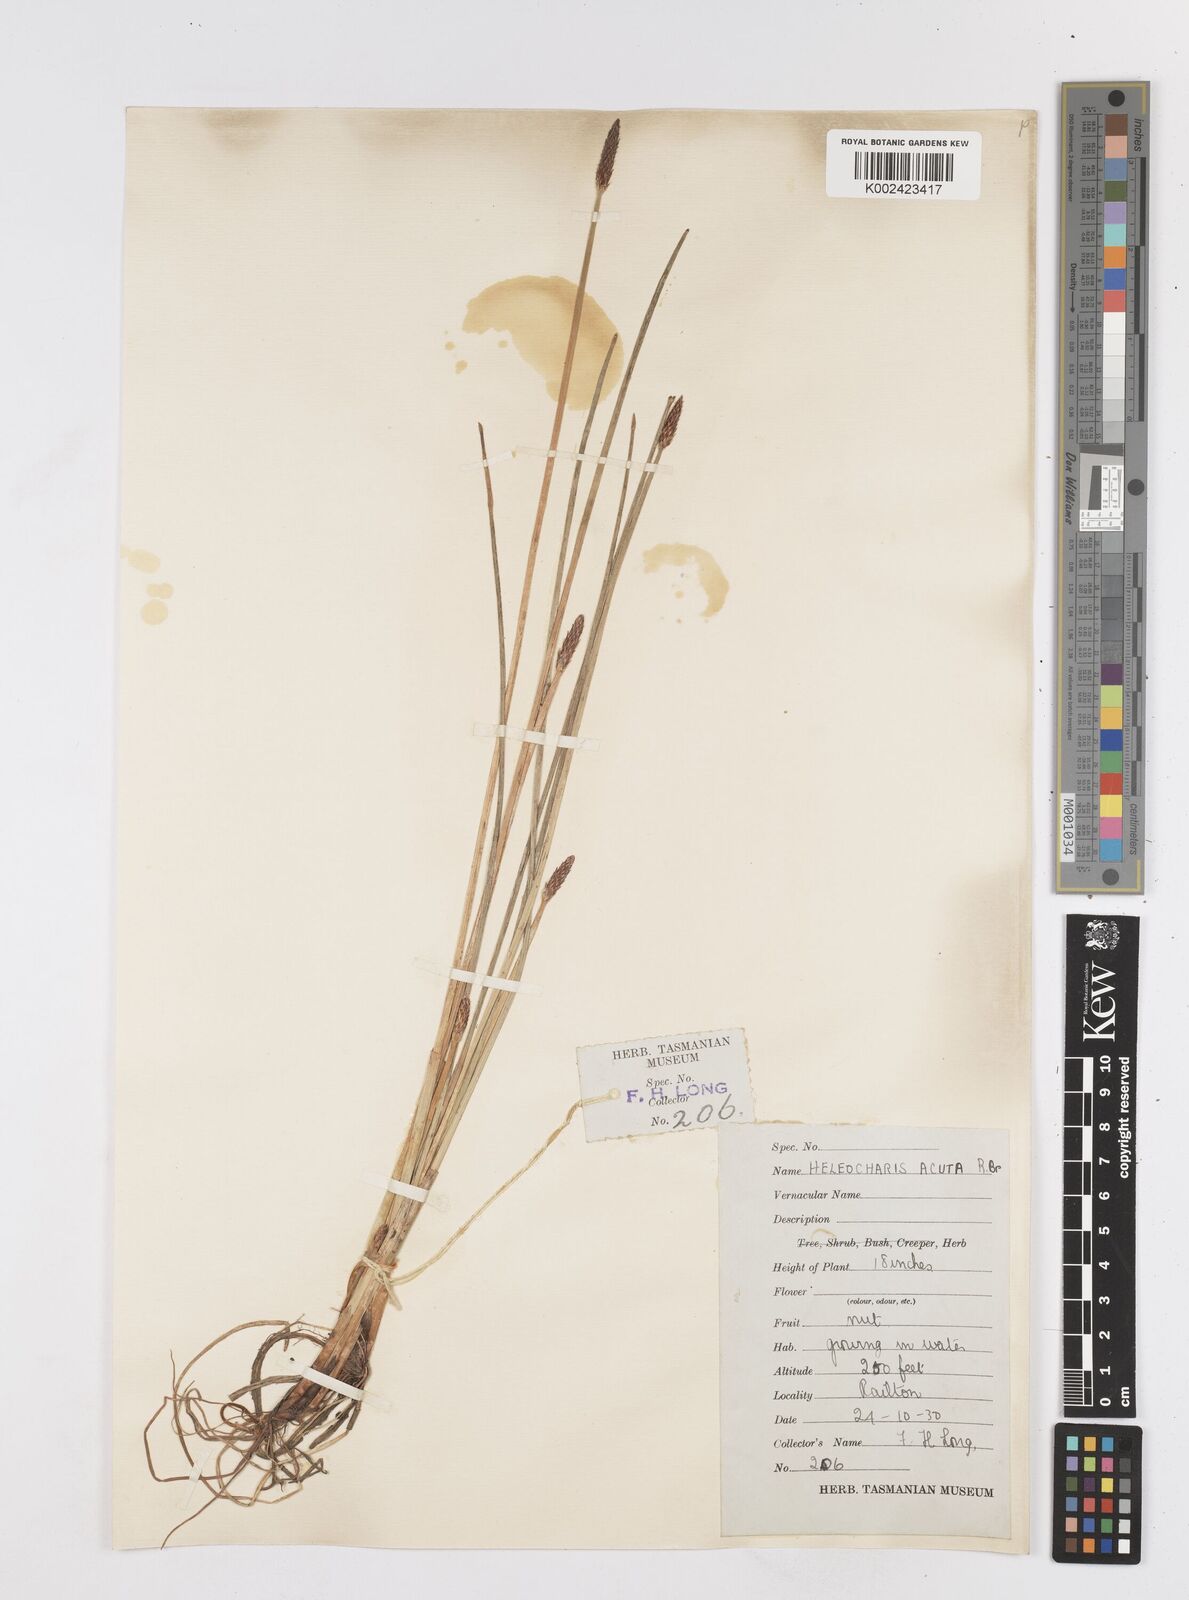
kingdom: Plantae
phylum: Tracheophyta
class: Liliopsida
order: Poales
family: Cyperaceae
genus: Eleocharis
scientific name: Eleocharis acuta
